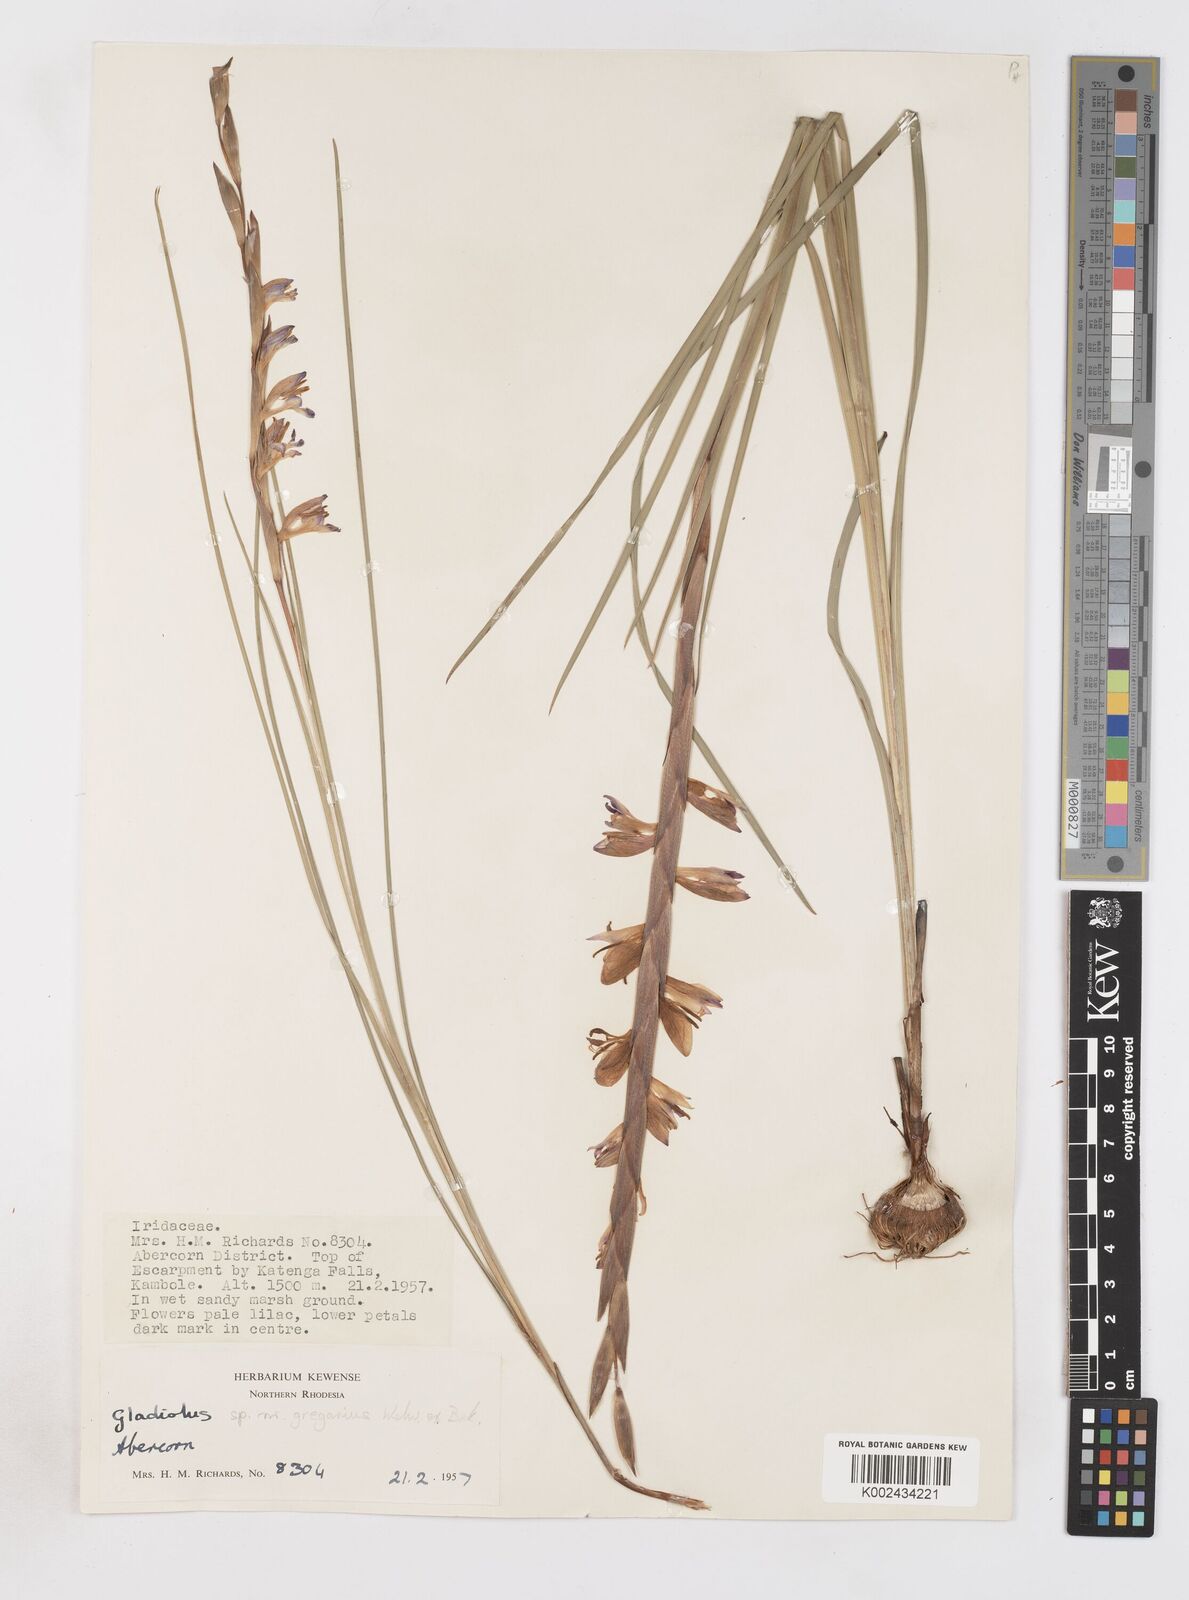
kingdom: Plantae
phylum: Tracheophyta
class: Liliopsida
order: Asparagales
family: Iridaceae
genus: Gladiolus
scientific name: Gladiolus gregarius
